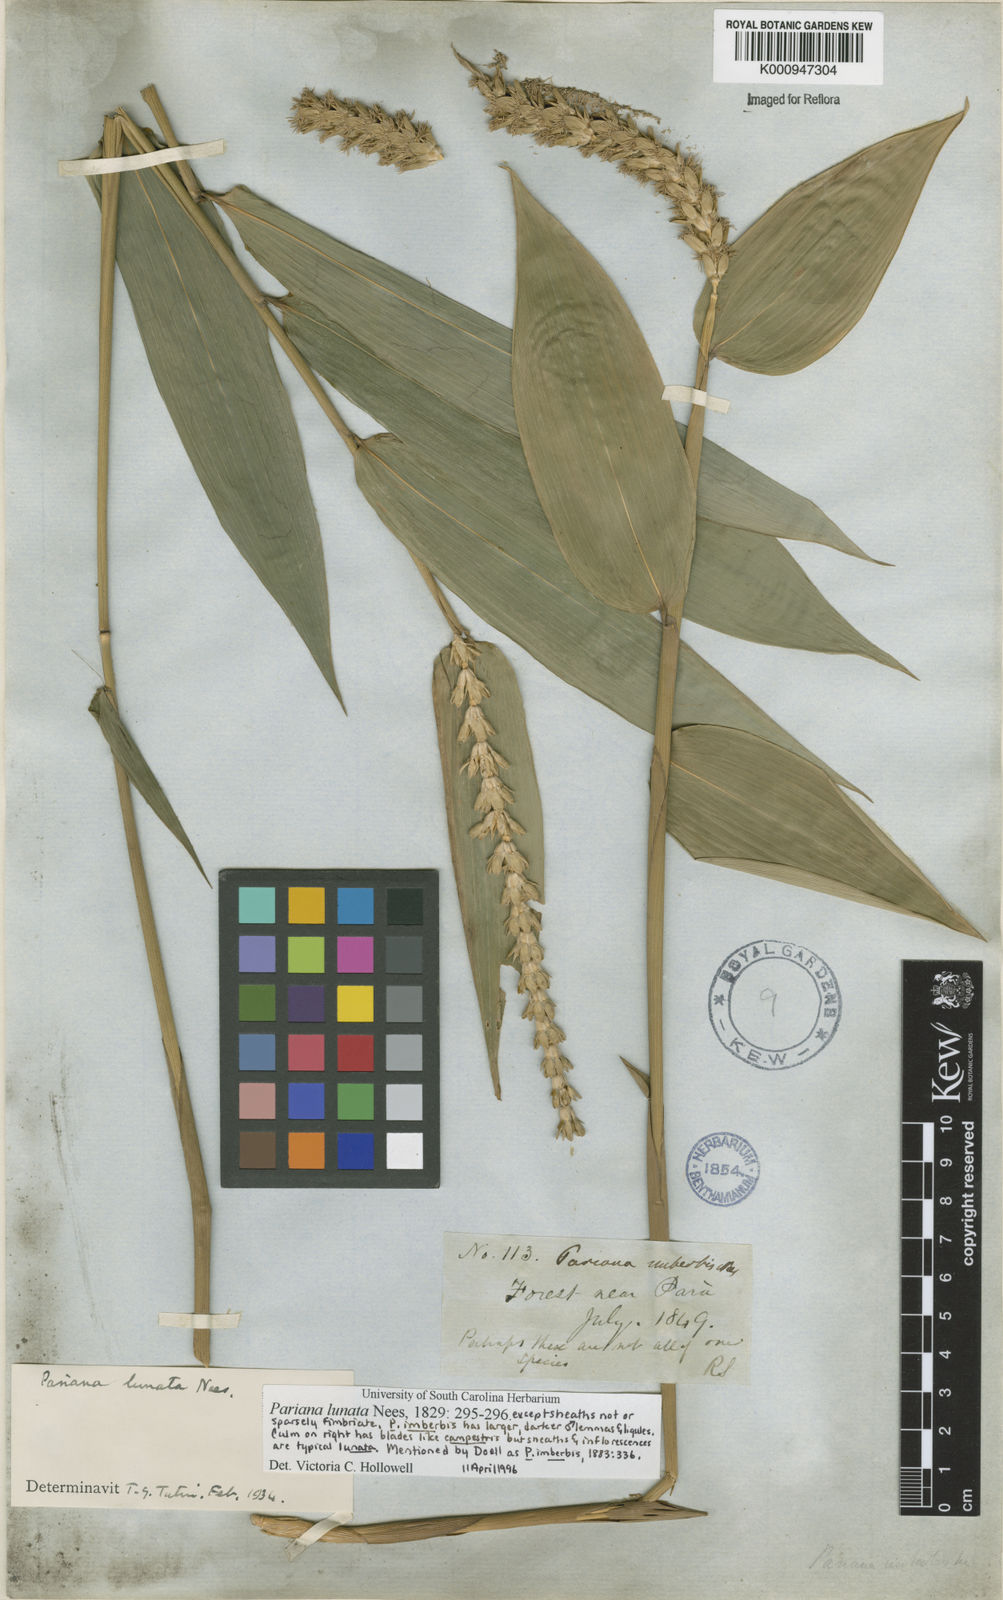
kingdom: Plantae
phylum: Tracheophyta
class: Liliopsida
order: Poales
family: Poaceae
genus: Pariana
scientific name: Pariana lunata
